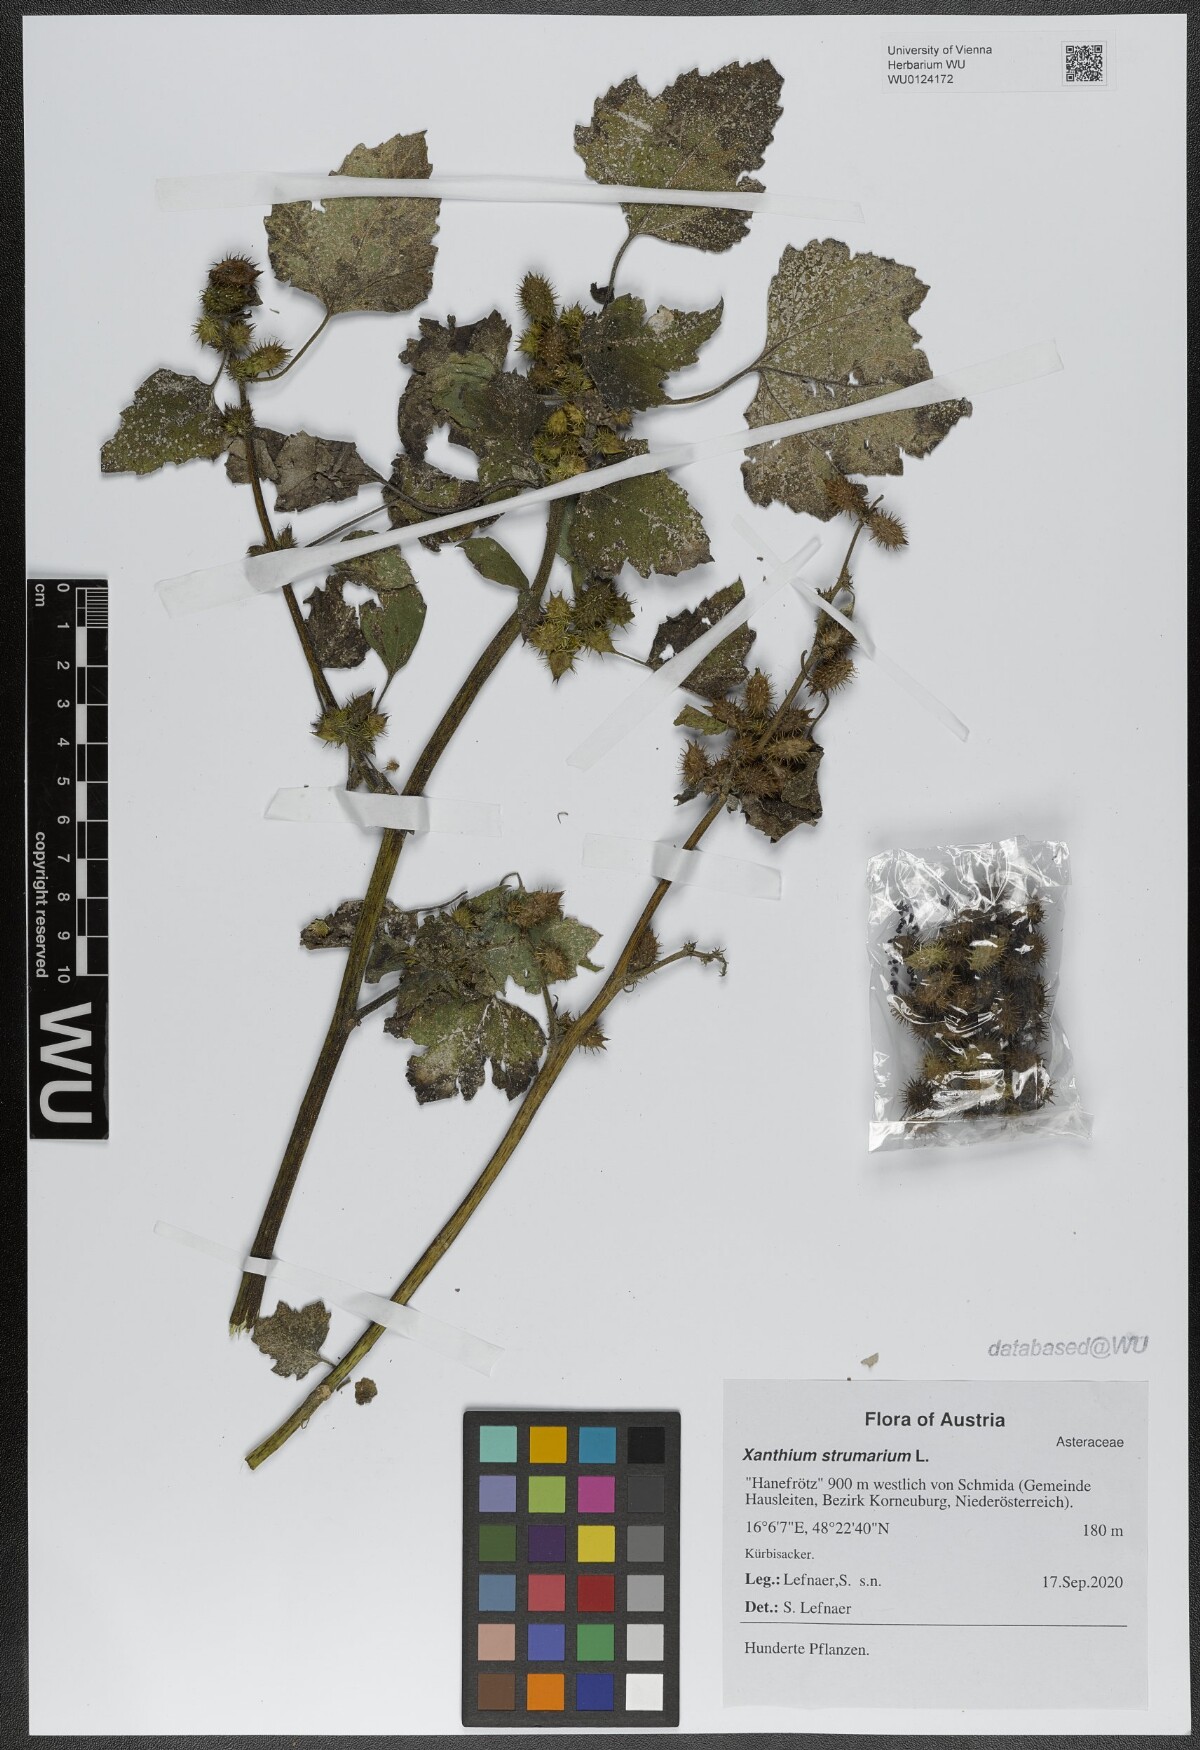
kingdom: Plantae
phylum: Tracheophyta
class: Magnoliopsida
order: Asterales
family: Asteraceae
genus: Xanthium
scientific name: Xanthium strumarium
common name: Rough cocklebur
